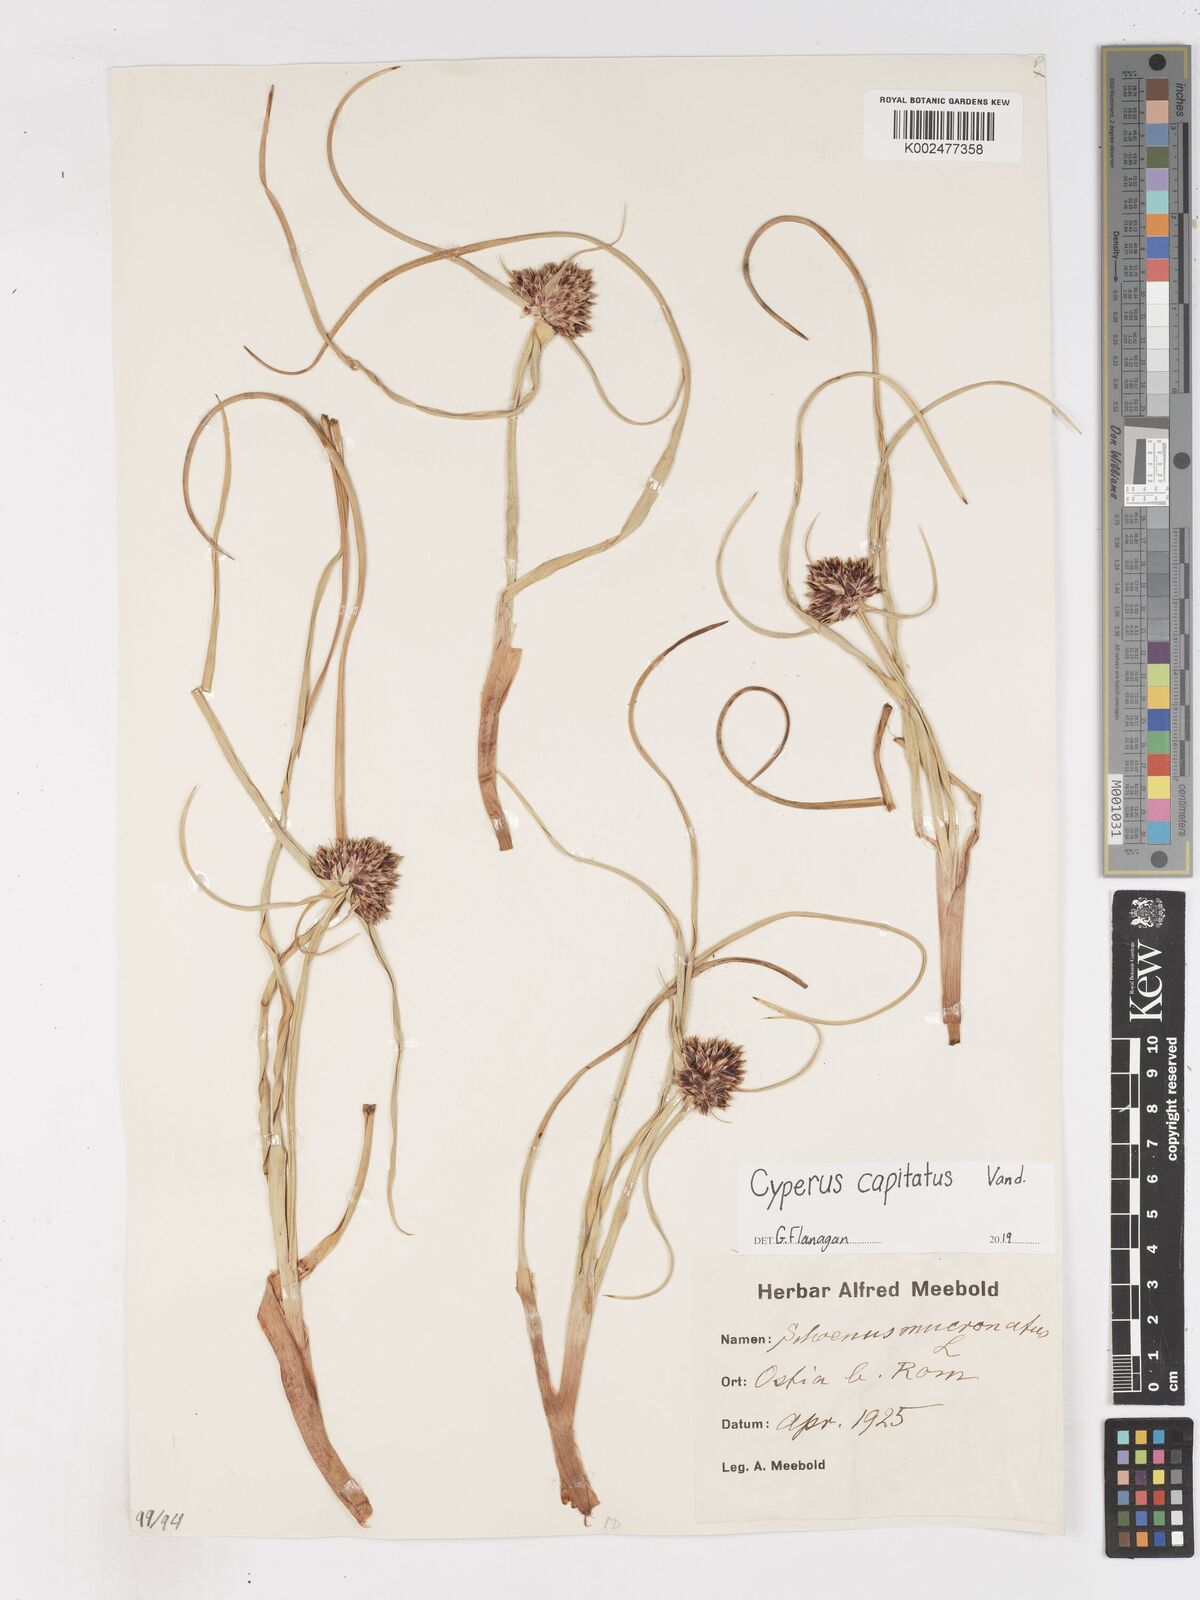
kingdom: Plantae
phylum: Tracheophyta
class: Liliopsida
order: Poales
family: Cyperaceae
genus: Cyperus
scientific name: Cyperus capitatus
